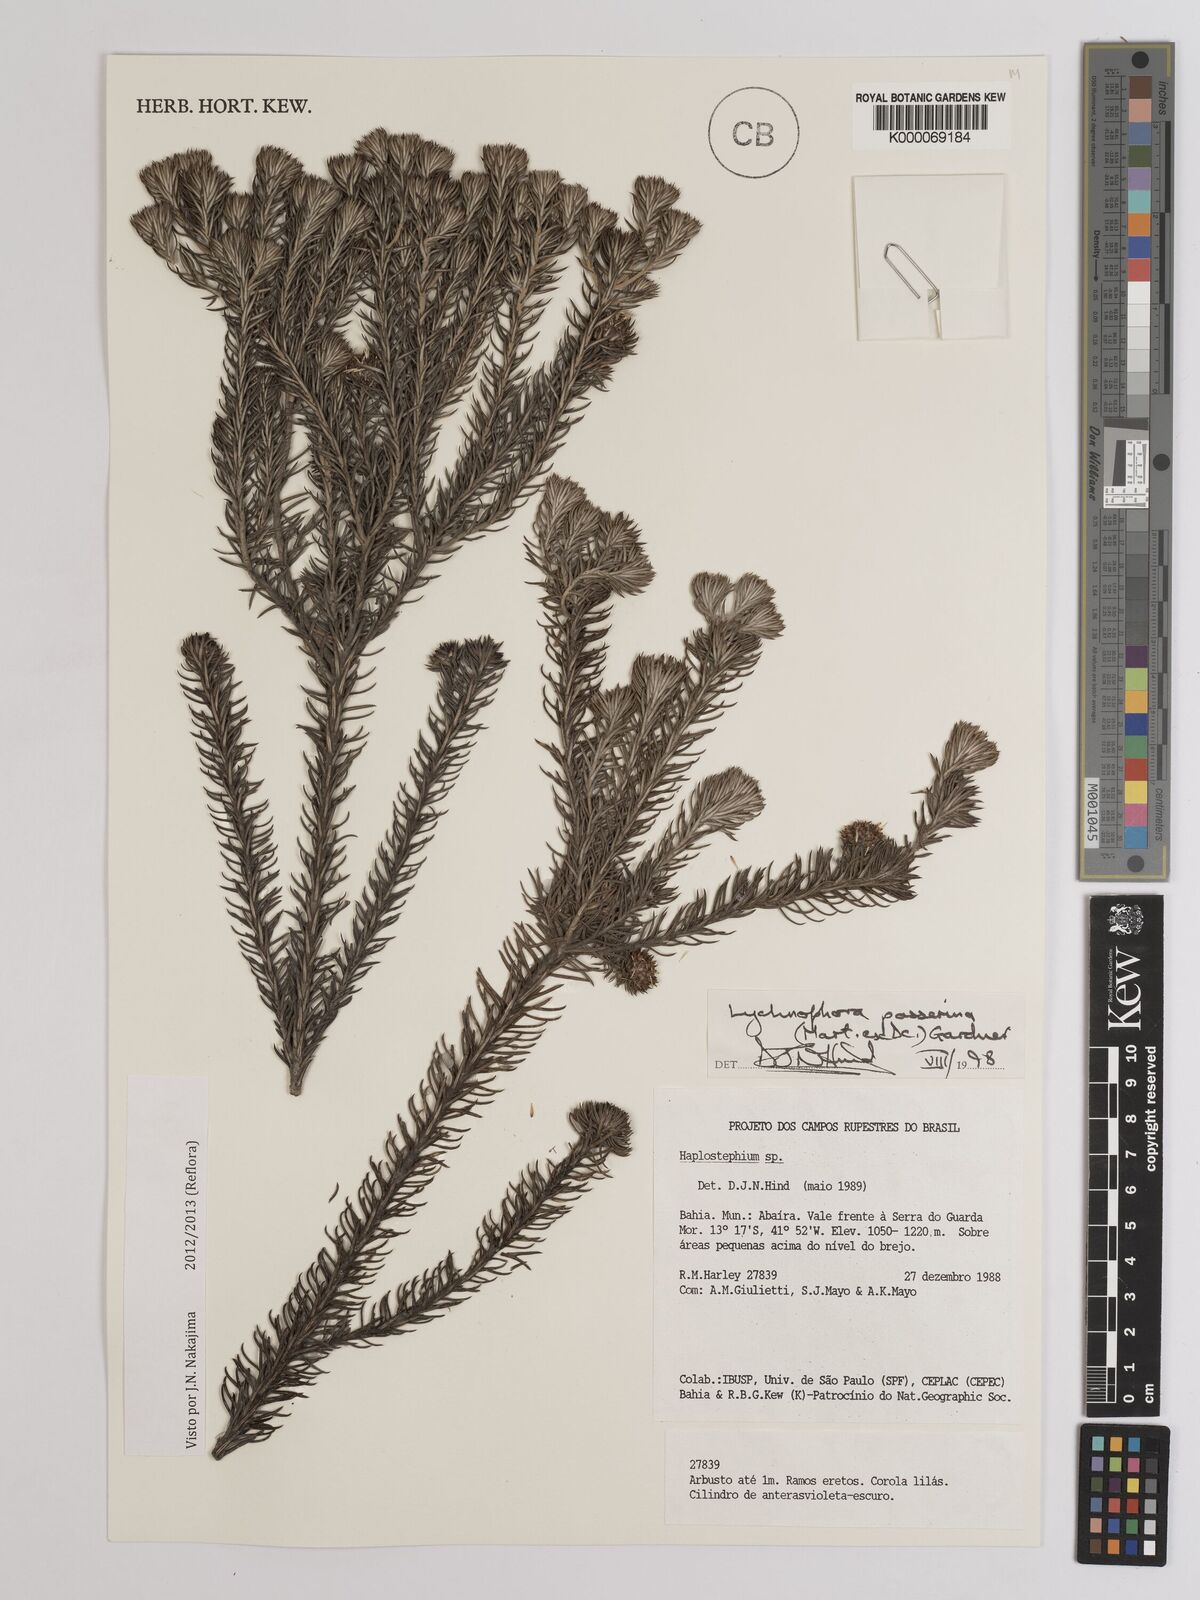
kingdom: Plantae
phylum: Tracheophyta
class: Magnoliopsida
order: Asterales
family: Asteraceae
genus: Lychnophora
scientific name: Lychnophora passerina
